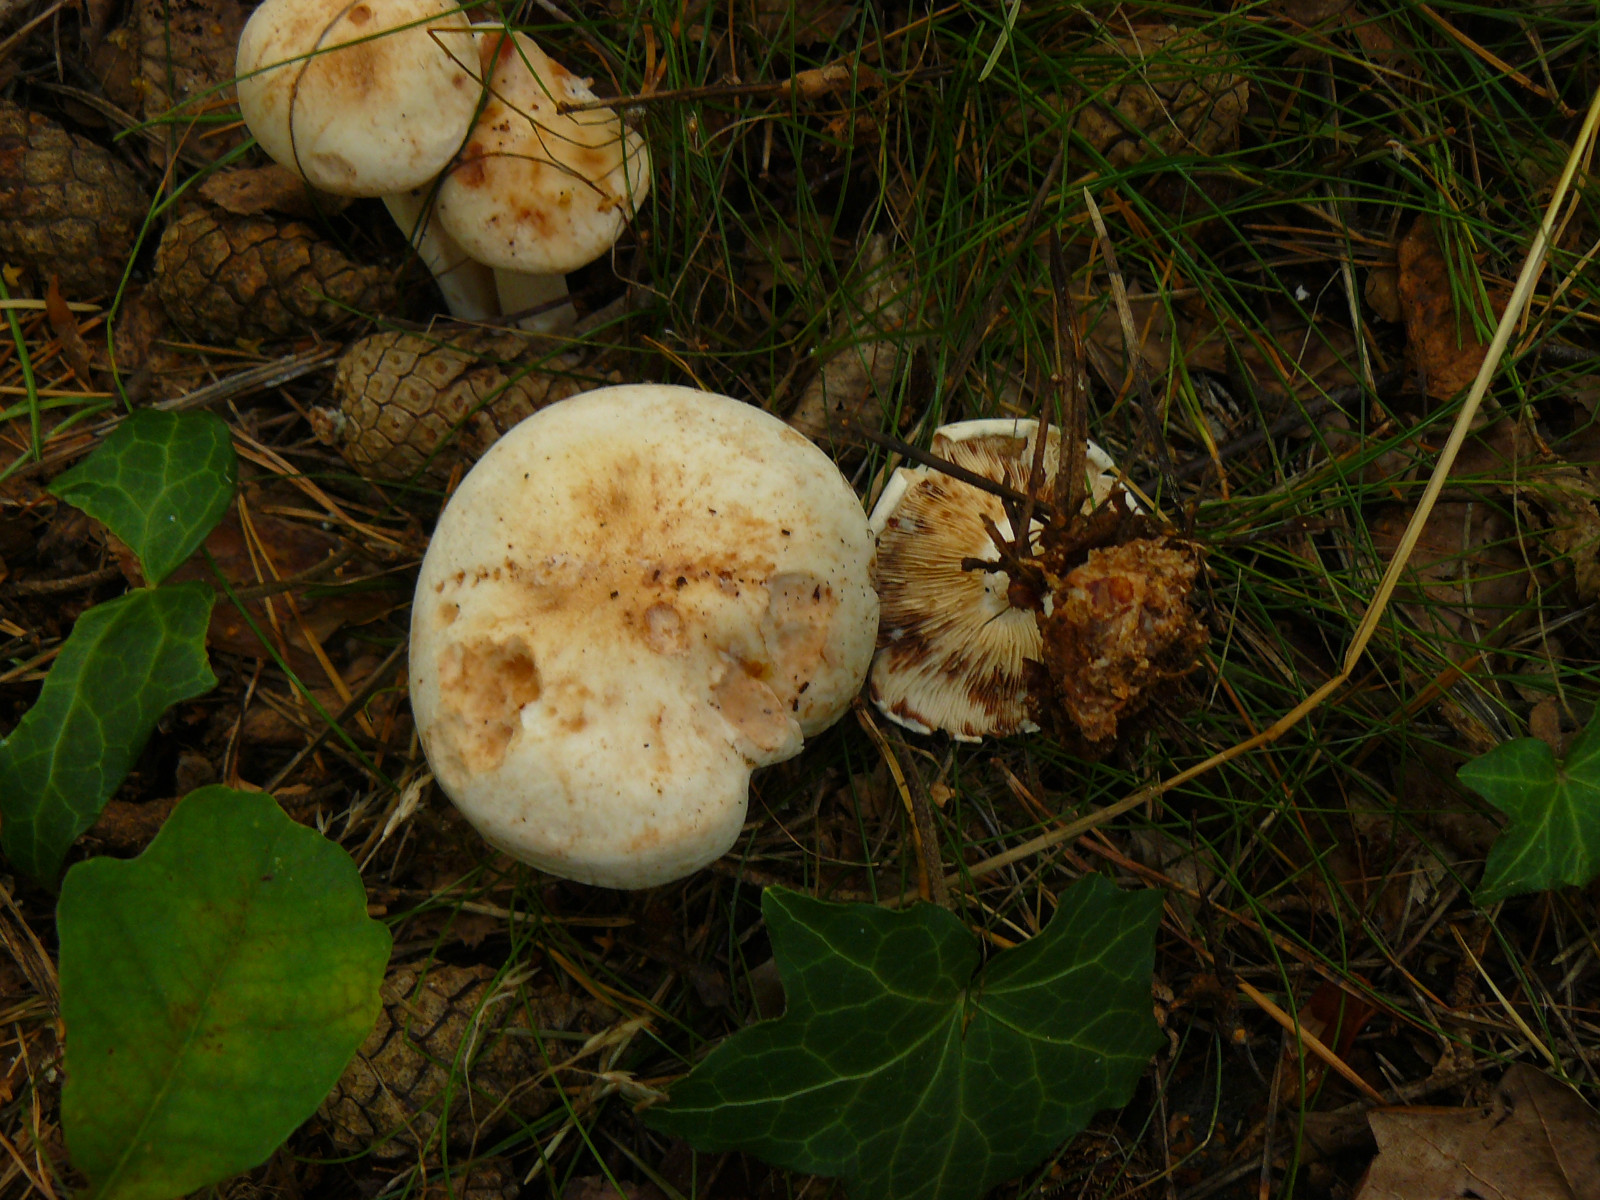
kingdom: Fungi
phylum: Basidiomycota
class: Agaricomycetes
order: Agaricales
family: Omphalotaceae
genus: Rhodocollybia
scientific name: Rhodocollybia maculata
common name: plettet fladhat
